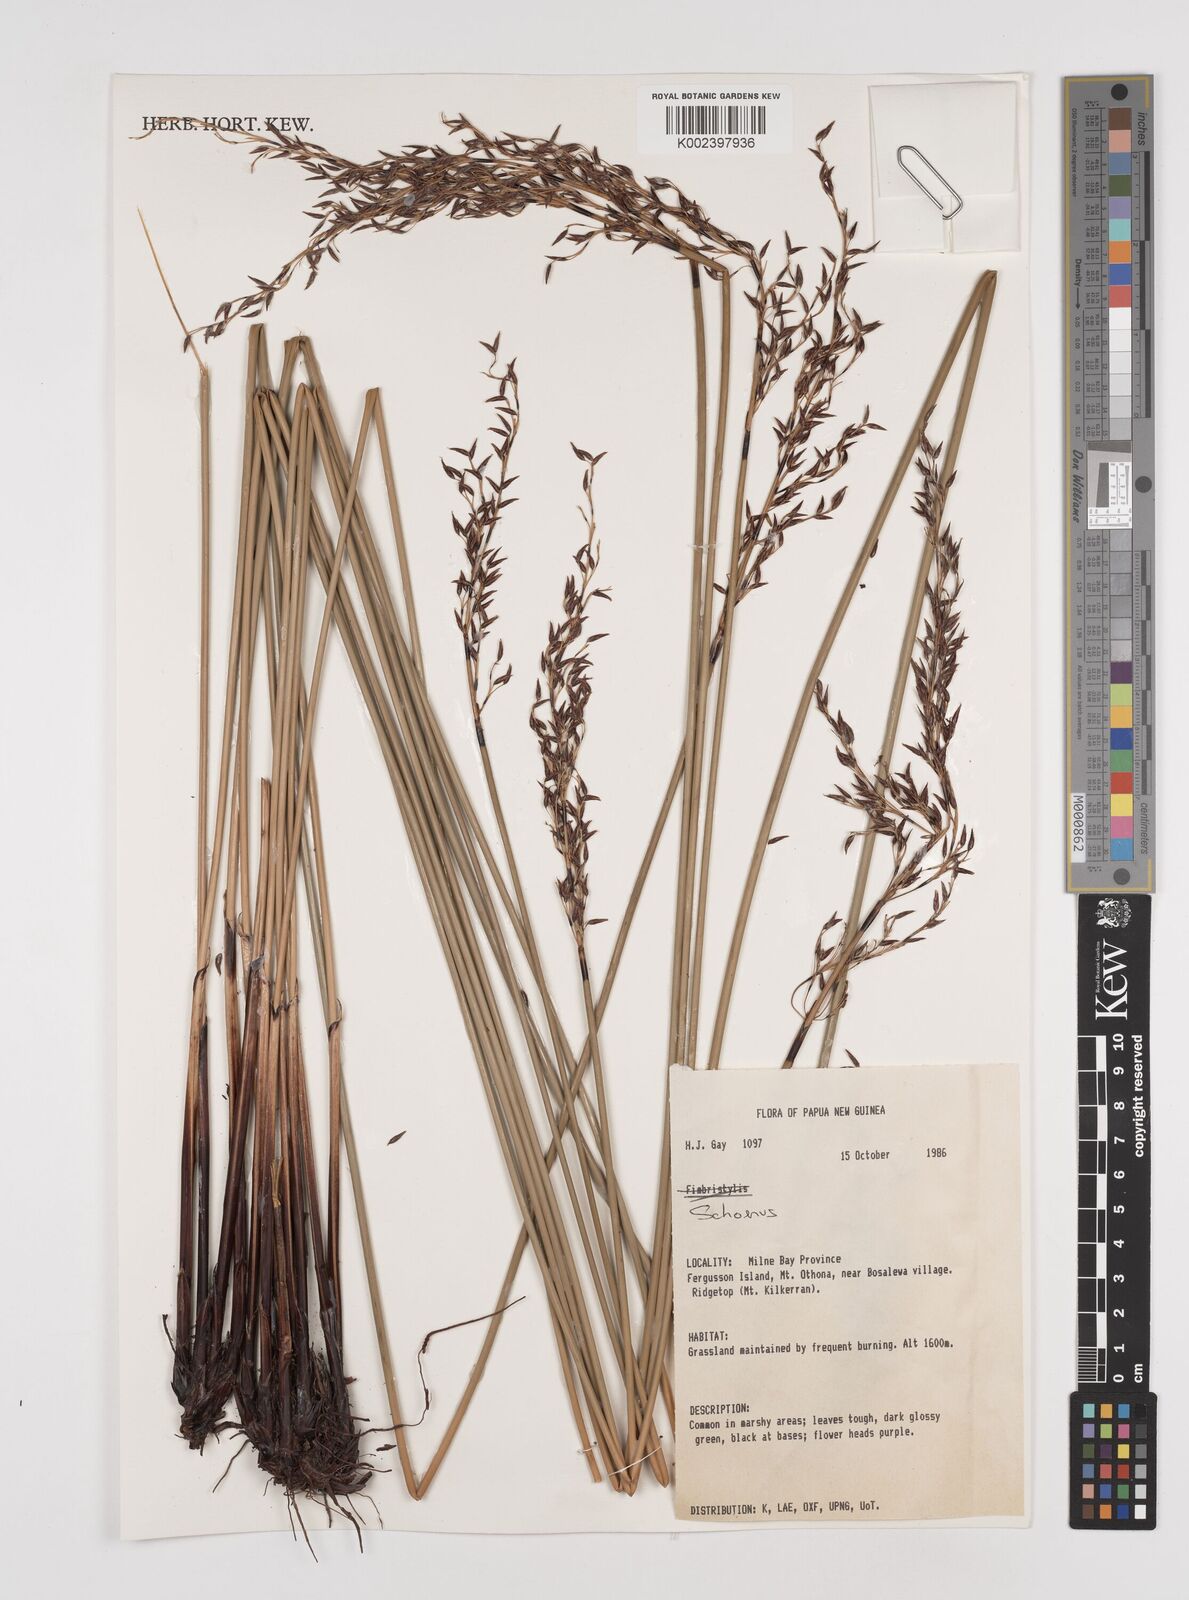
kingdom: Plantae
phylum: Tracheophyta
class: Liliopsida
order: Poales
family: Cyperaceae
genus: Schoenus
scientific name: Schoenus
